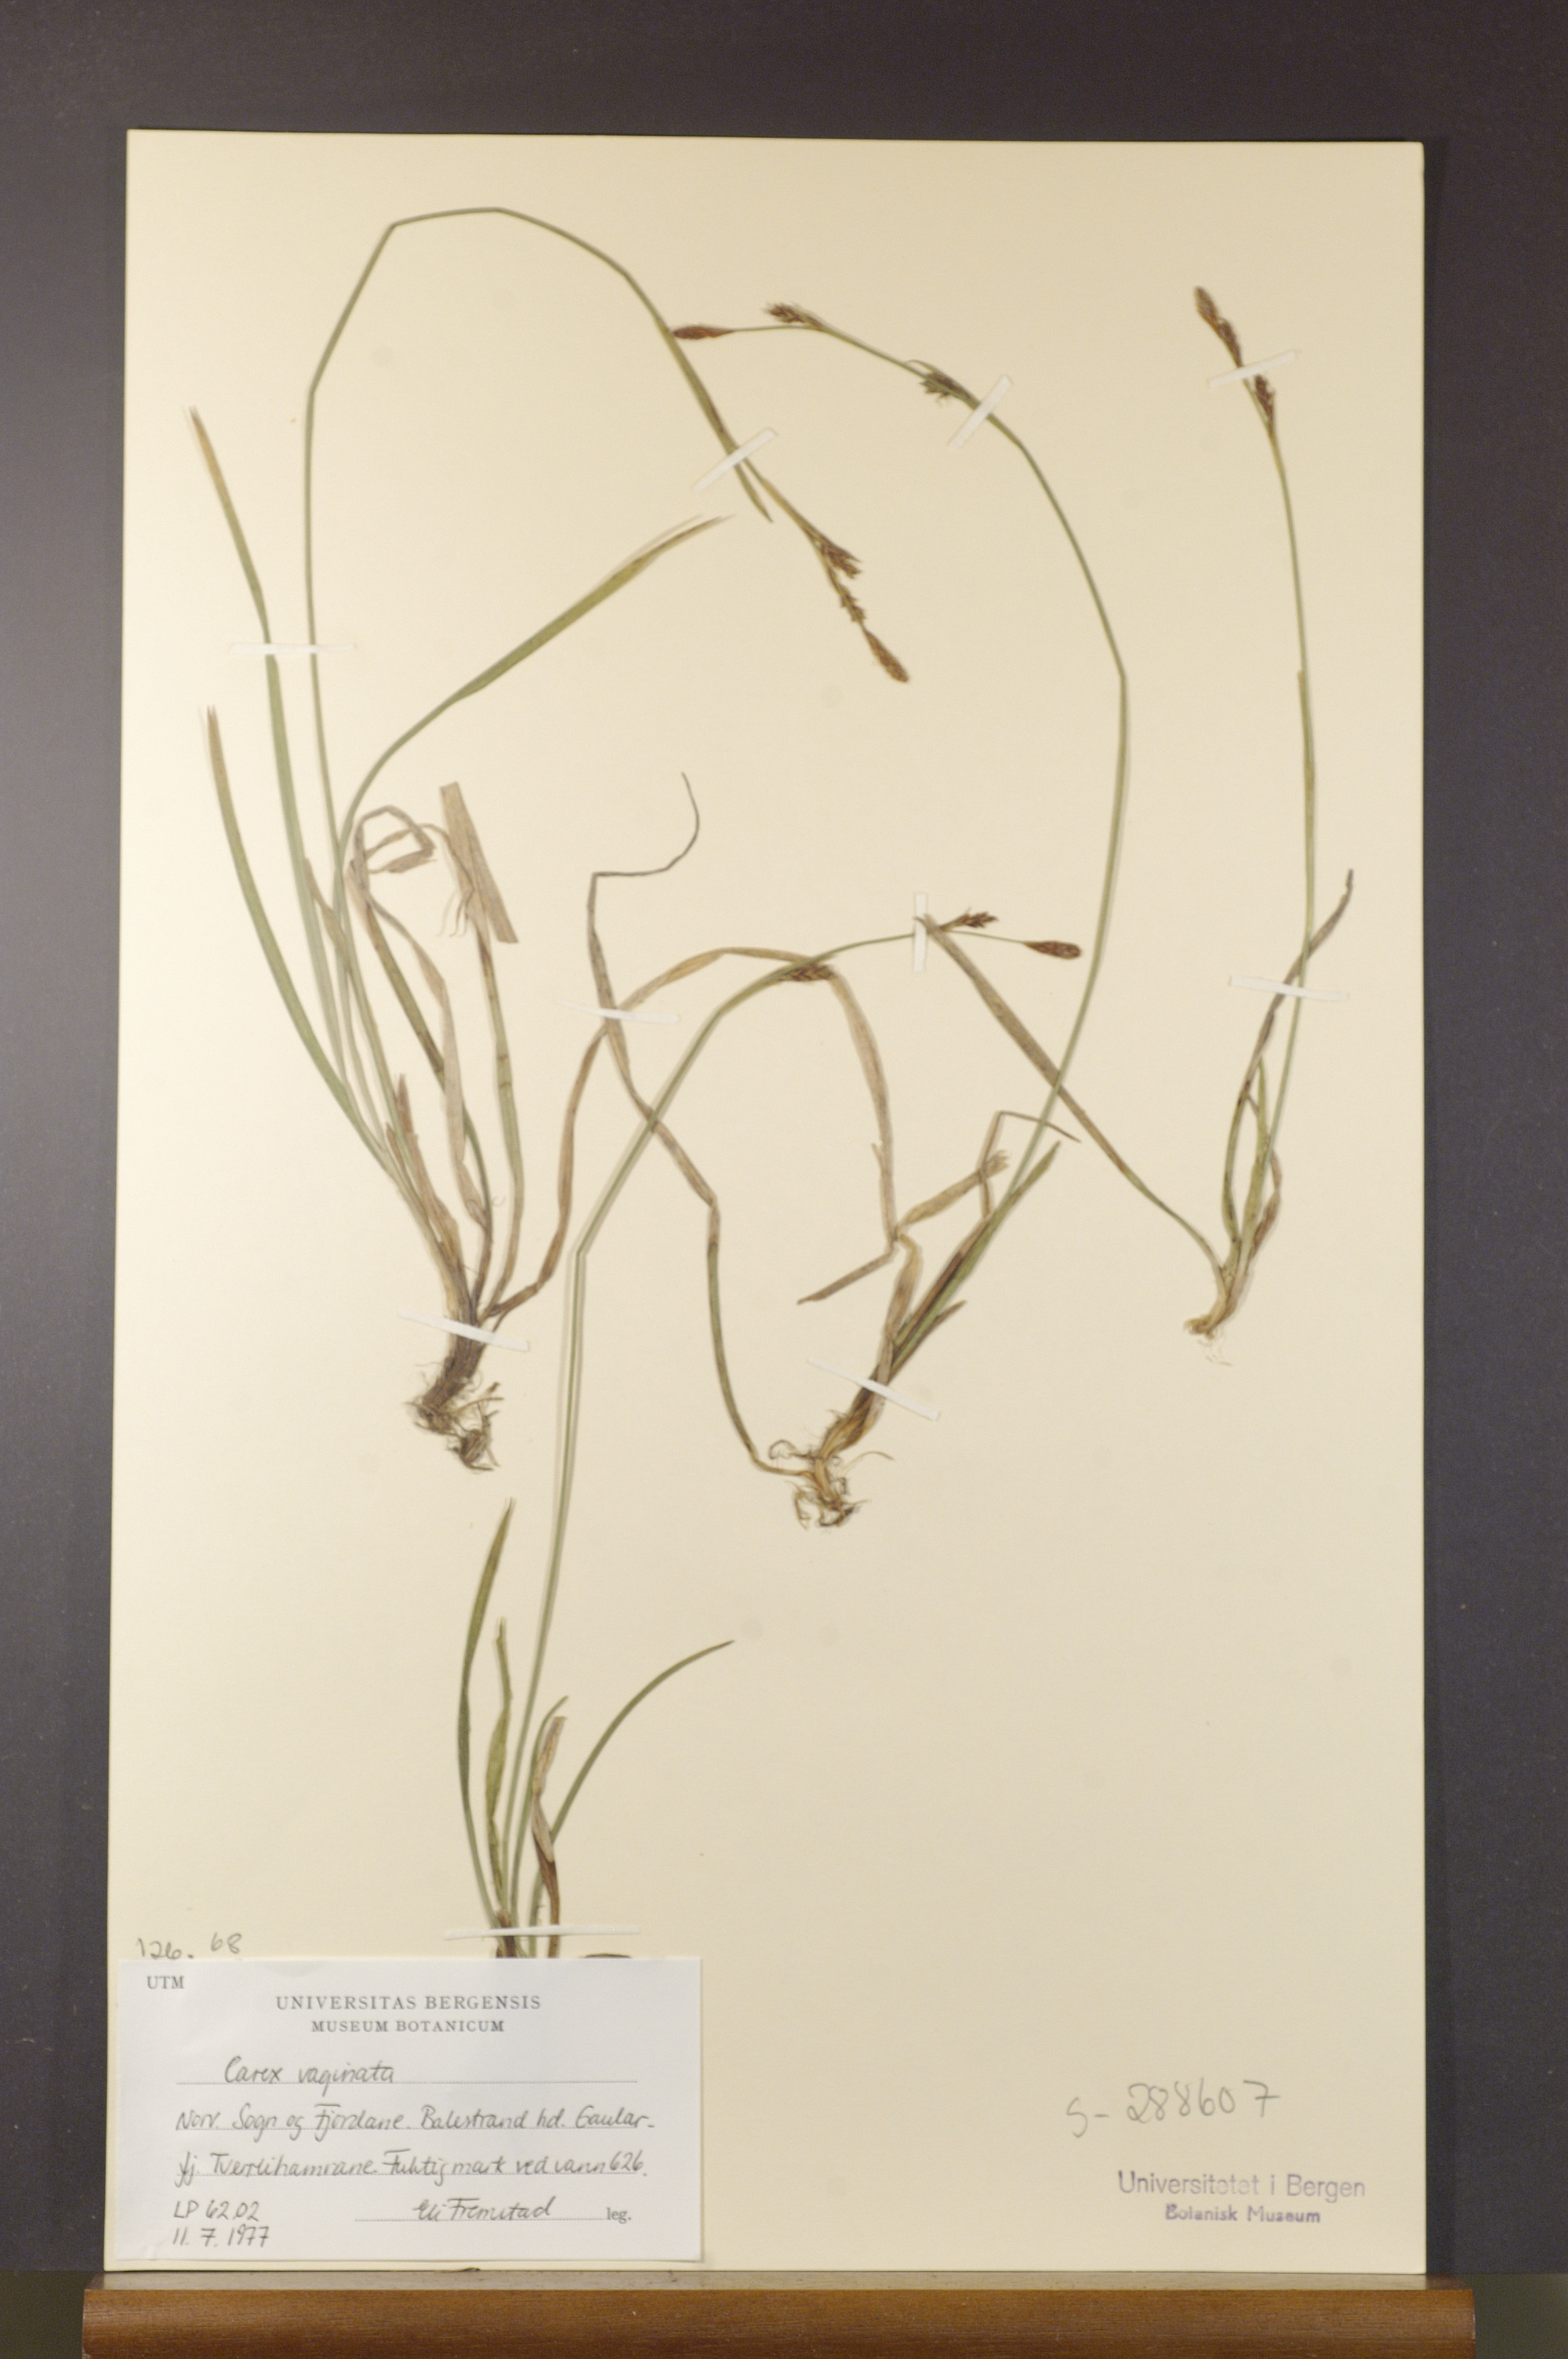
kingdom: Plantae
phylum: Tracheophyta
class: Liliopsida
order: Poales
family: Cyperaceae
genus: Carex
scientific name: Carex vaginata
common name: Sheathed sedge
